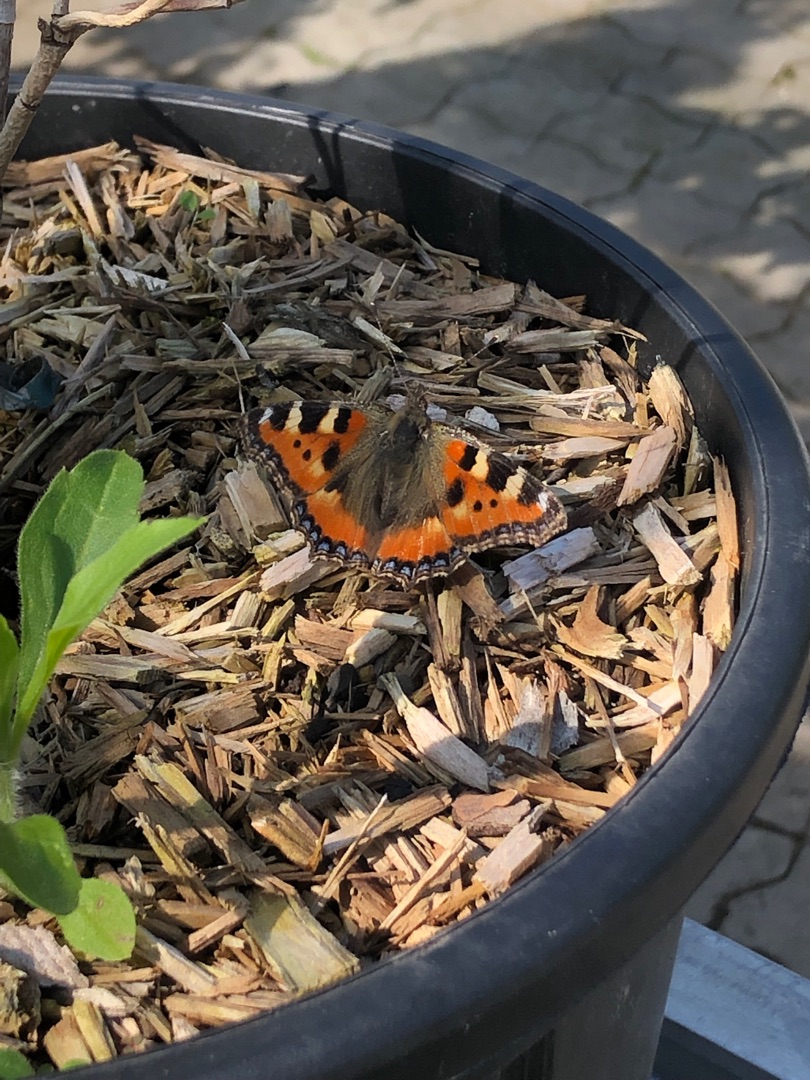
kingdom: Animalia
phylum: Arthropoda
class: Insecta
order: Lepidoptera
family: Nymphalidae
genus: Aglais
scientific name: Aglais urticae
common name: Nældens takvinge
